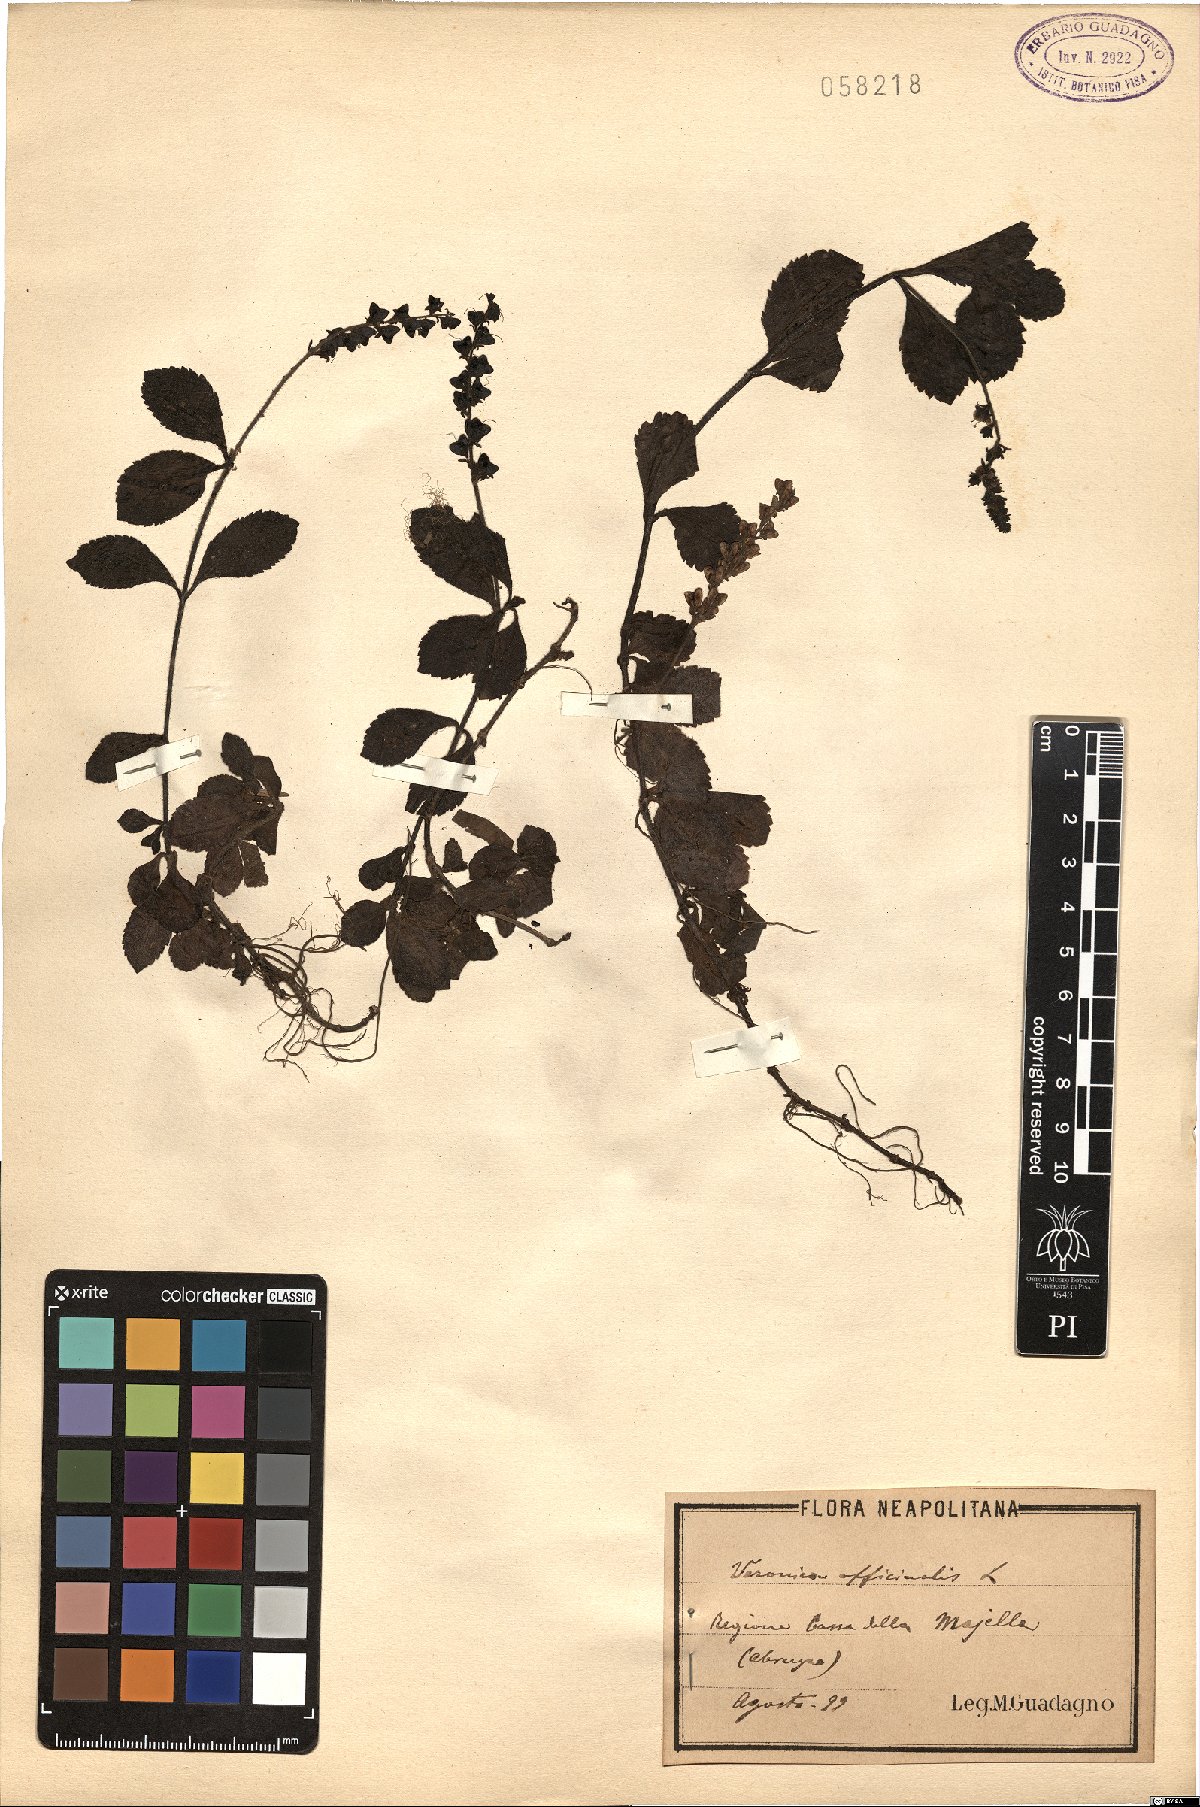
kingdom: Plantae
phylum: Tracheophyta
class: Magnoliopsida
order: Lamiales
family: Plantaginaceae
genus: Veronica
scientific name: Veronica officinalis
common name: Common speedwell
